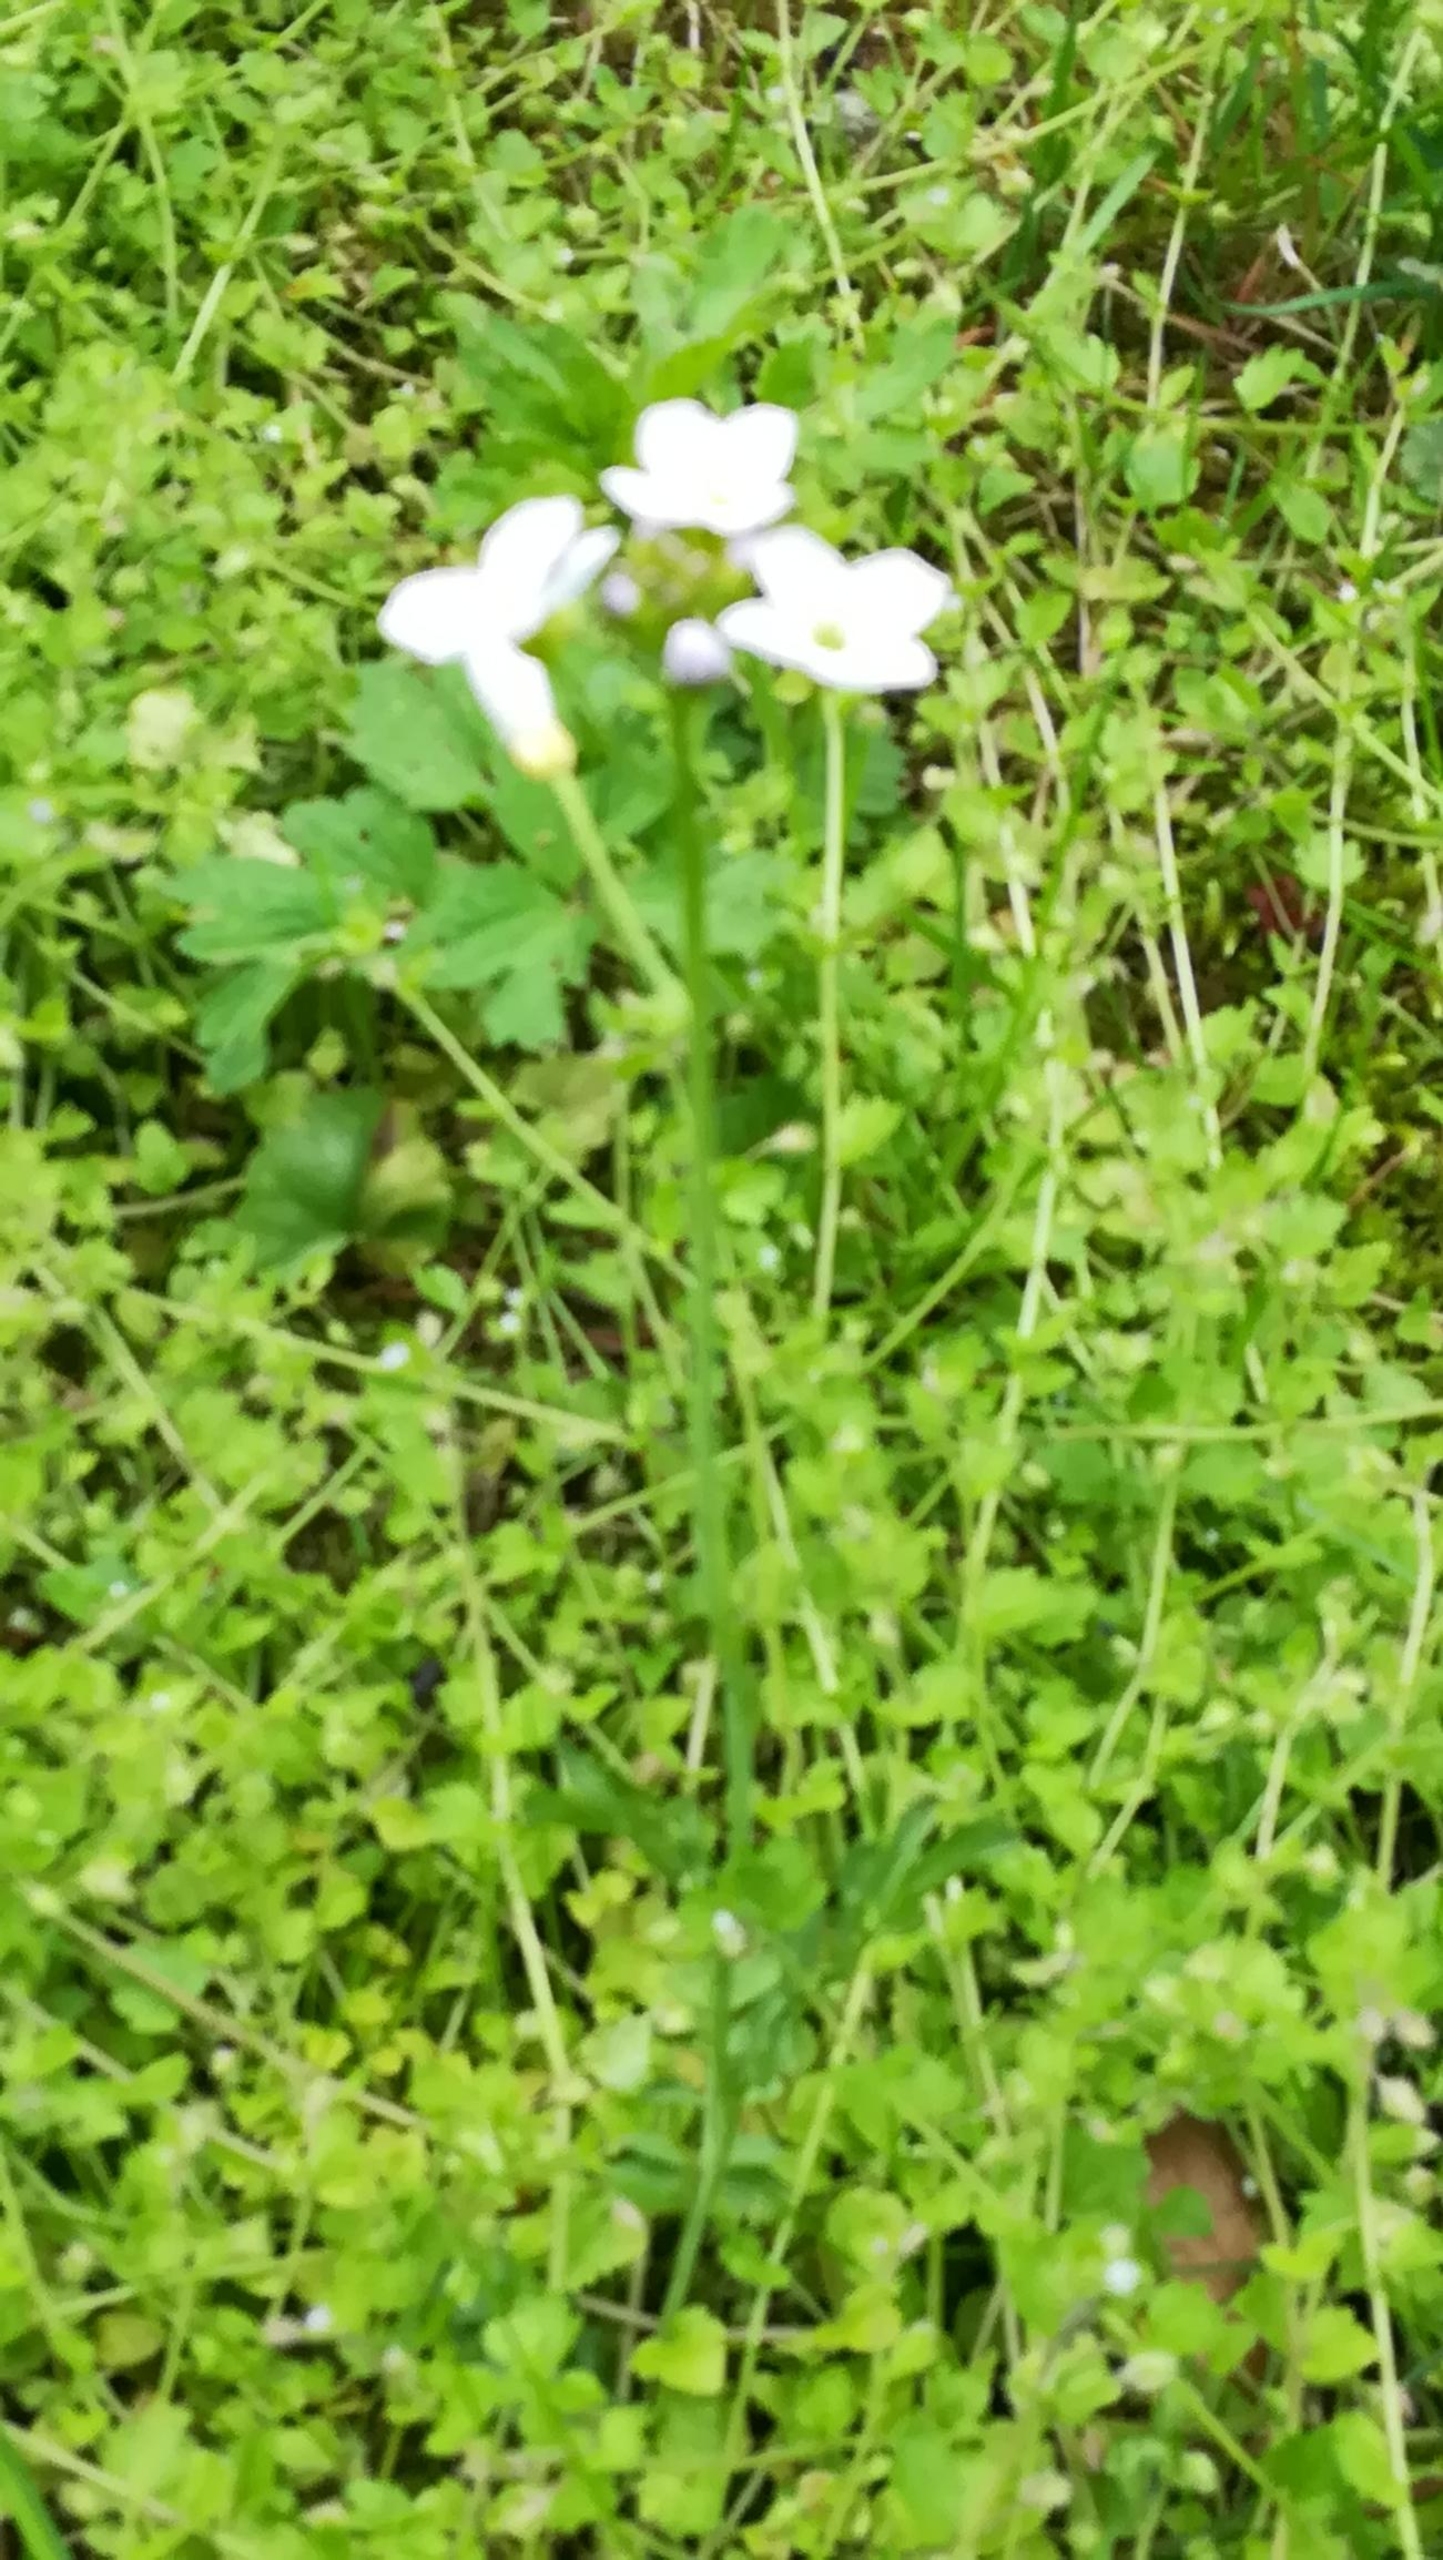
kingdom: Plantae
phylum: Tracheophyta
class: Magnoliopsida
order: Brassicales
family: Brassicaceae
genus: Cardamine
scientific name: Cardamine pratensis
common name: Engkarse
